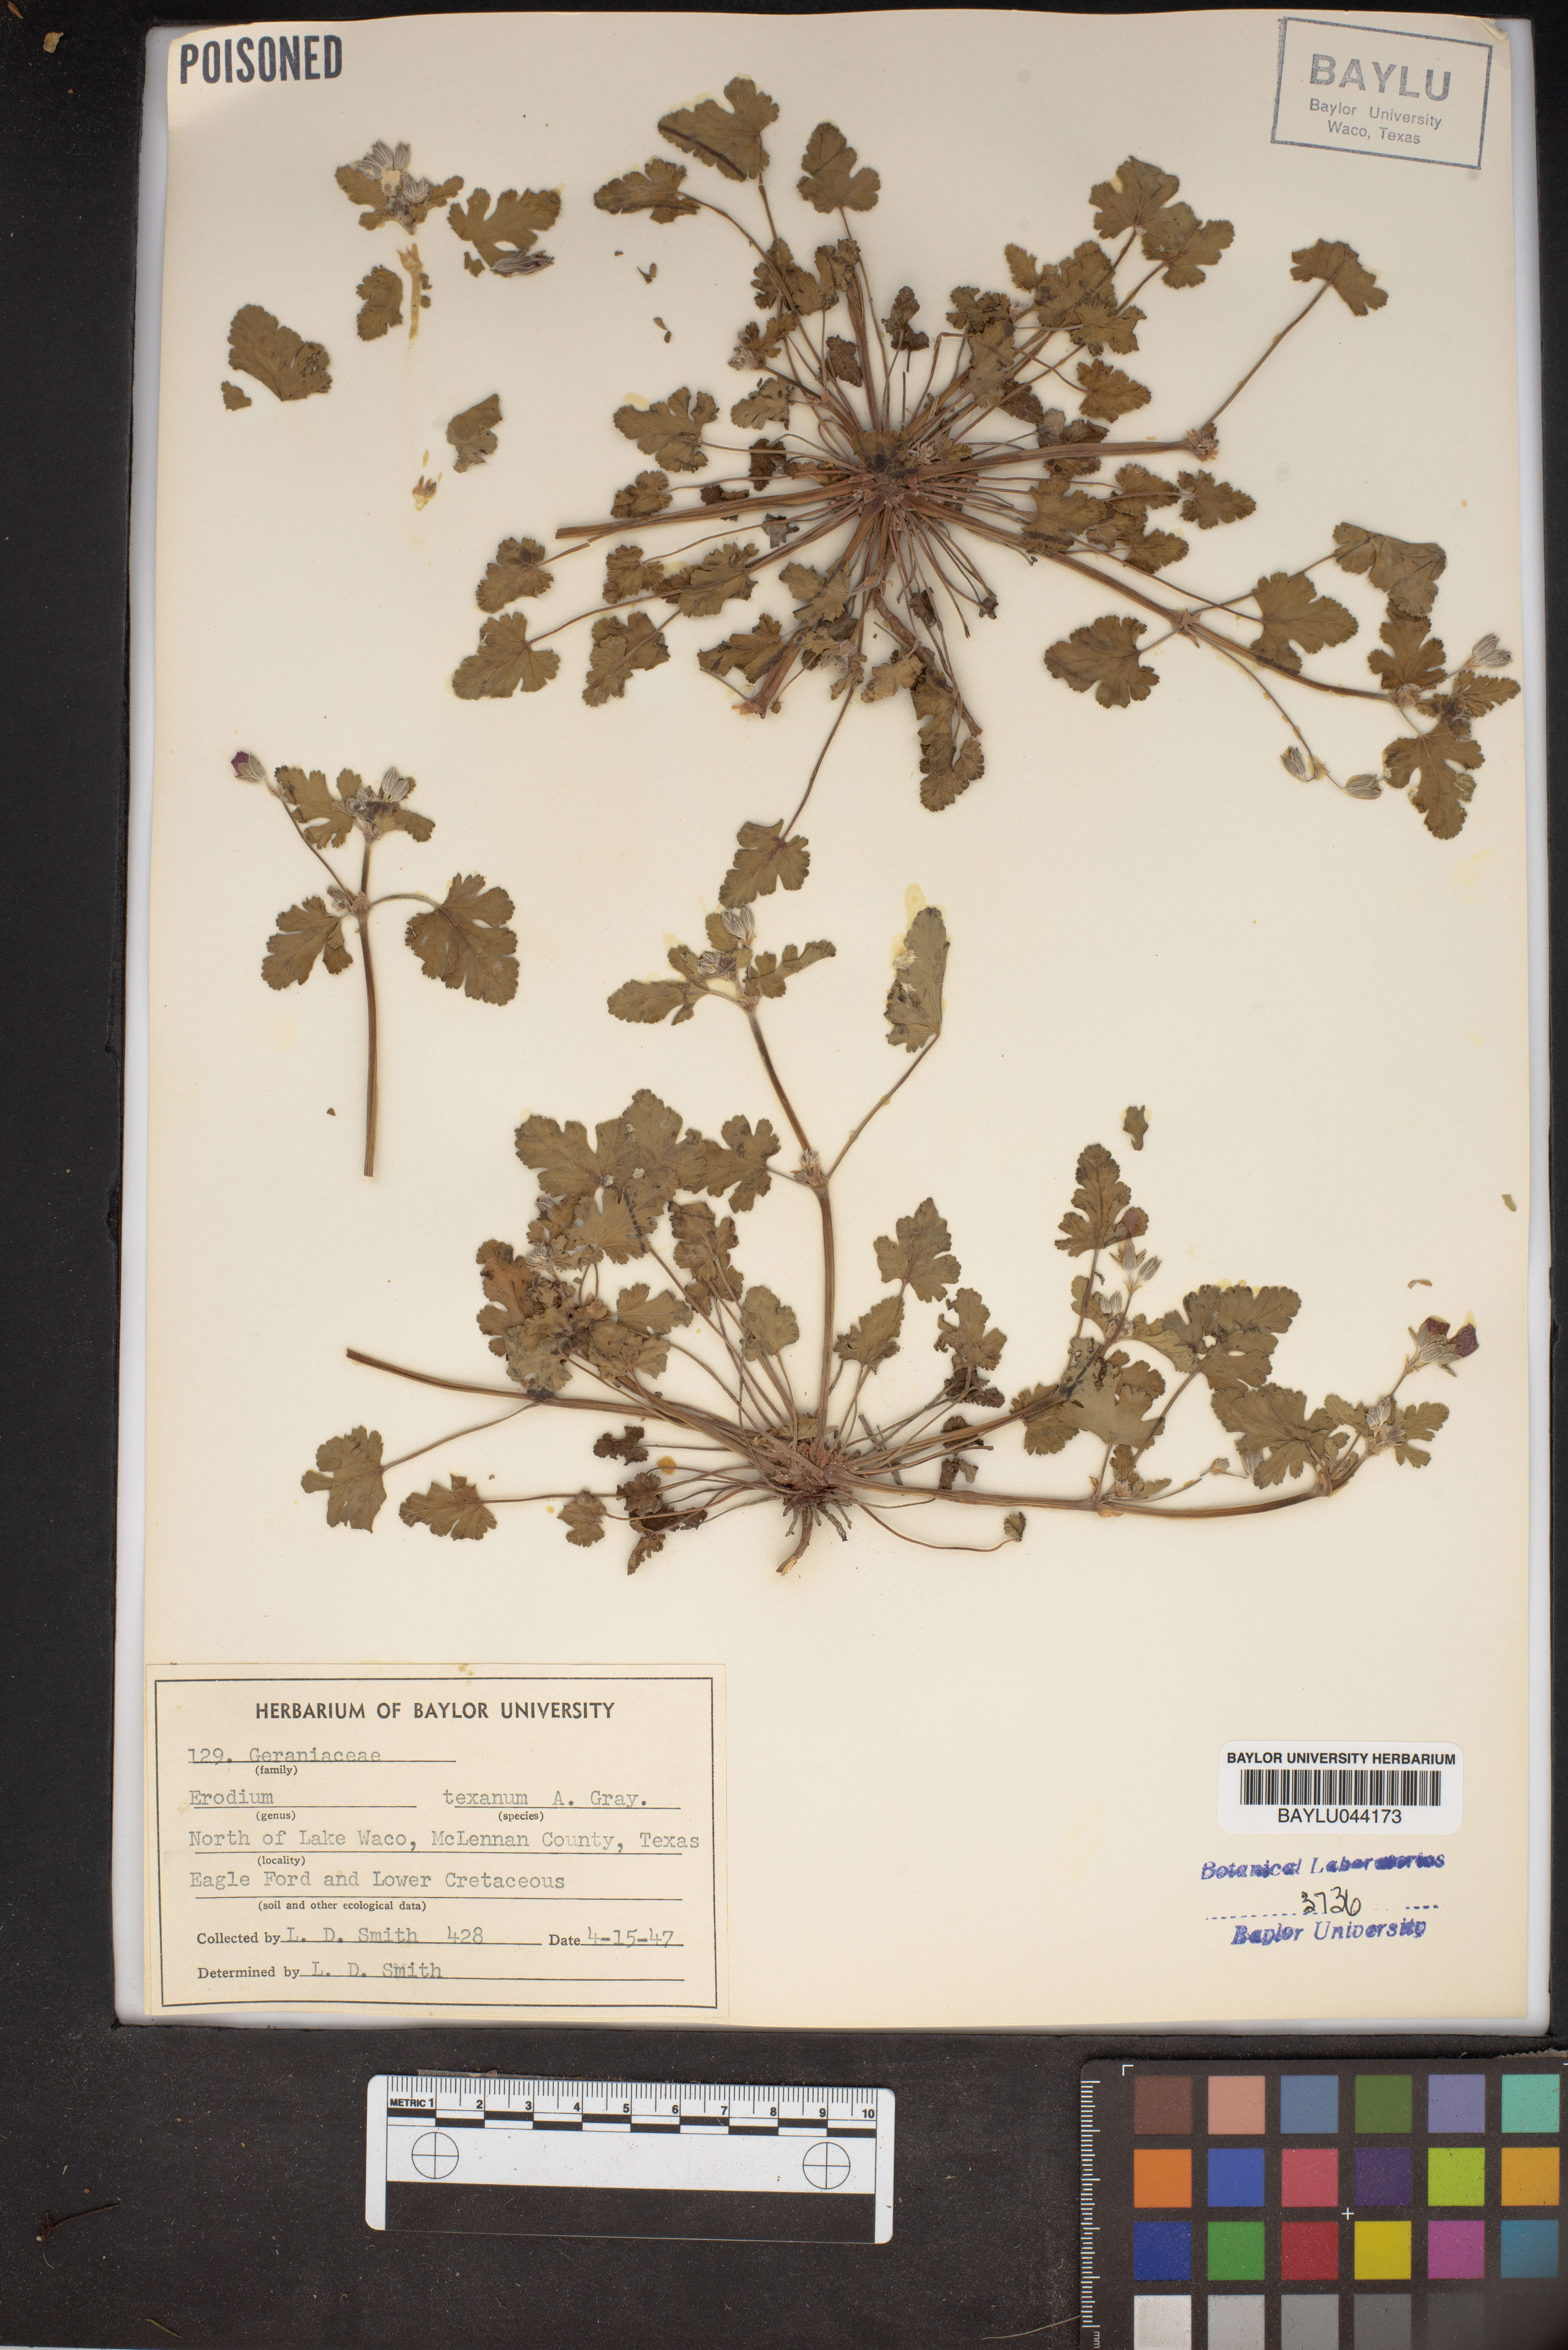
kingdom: Plantae
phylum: Tracheophyta
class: Magnoliopsida
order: Geraniales
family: Geraniaceae
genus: Erodium
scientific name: Erodium texanum
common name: Texas stork's-bill
